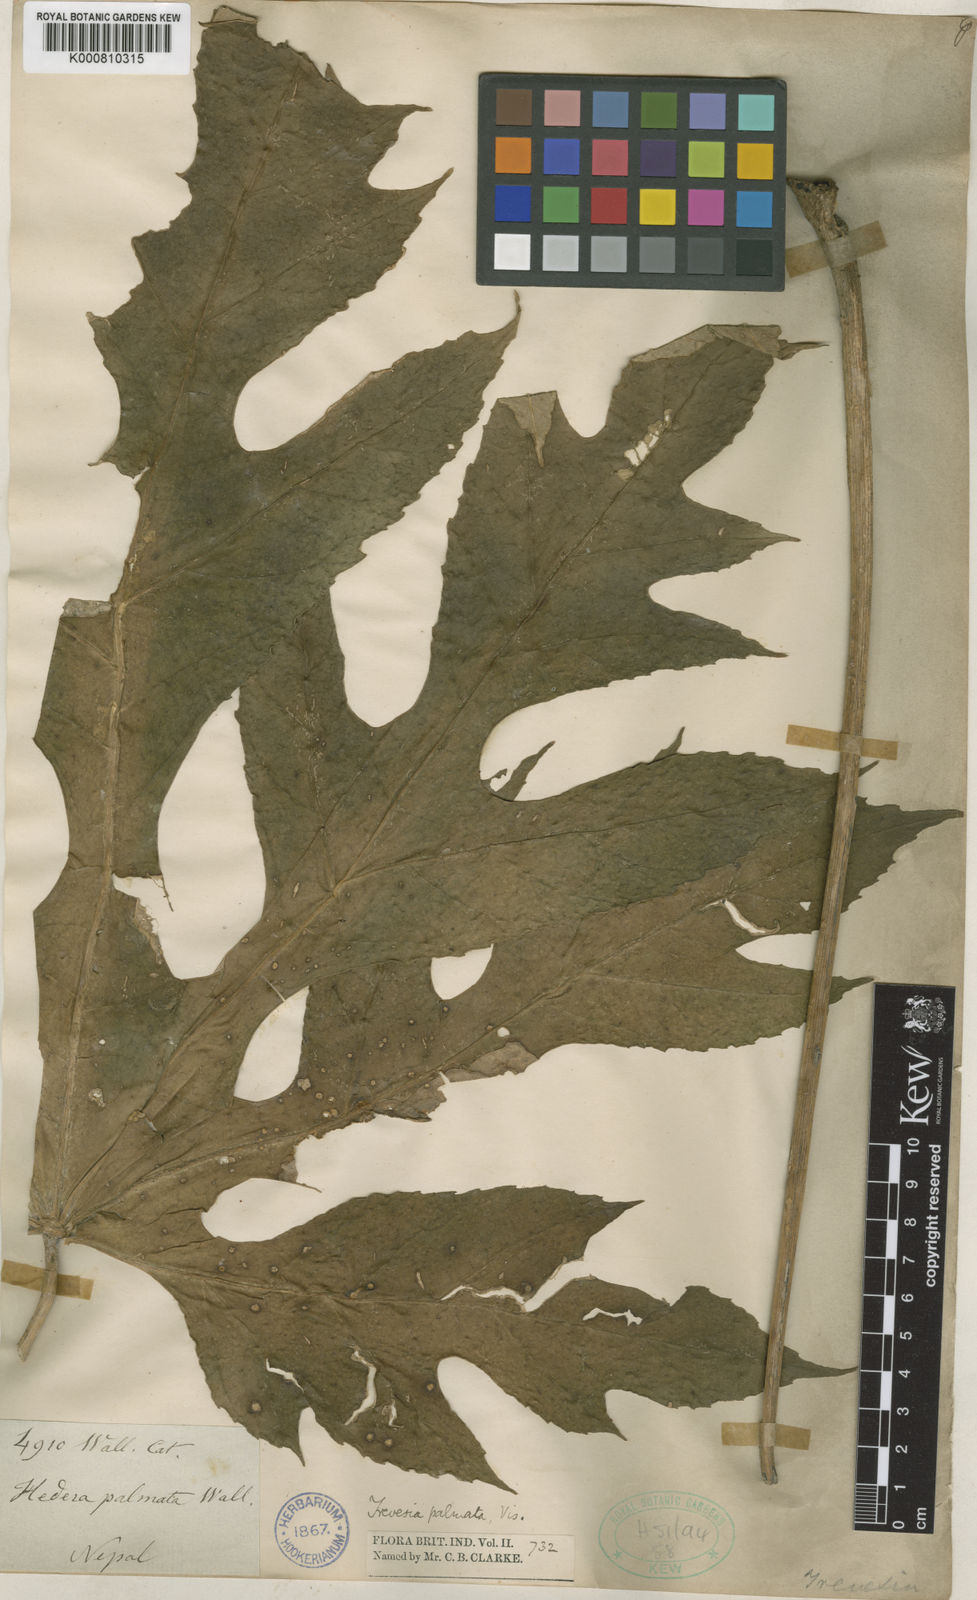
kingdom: Plantae
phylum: Tracheophyta
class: Magnoliopsida
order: Apiales
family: Araliaceae
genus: Trevesia
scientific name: Trevesia palmata
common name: Snowflakeplant
